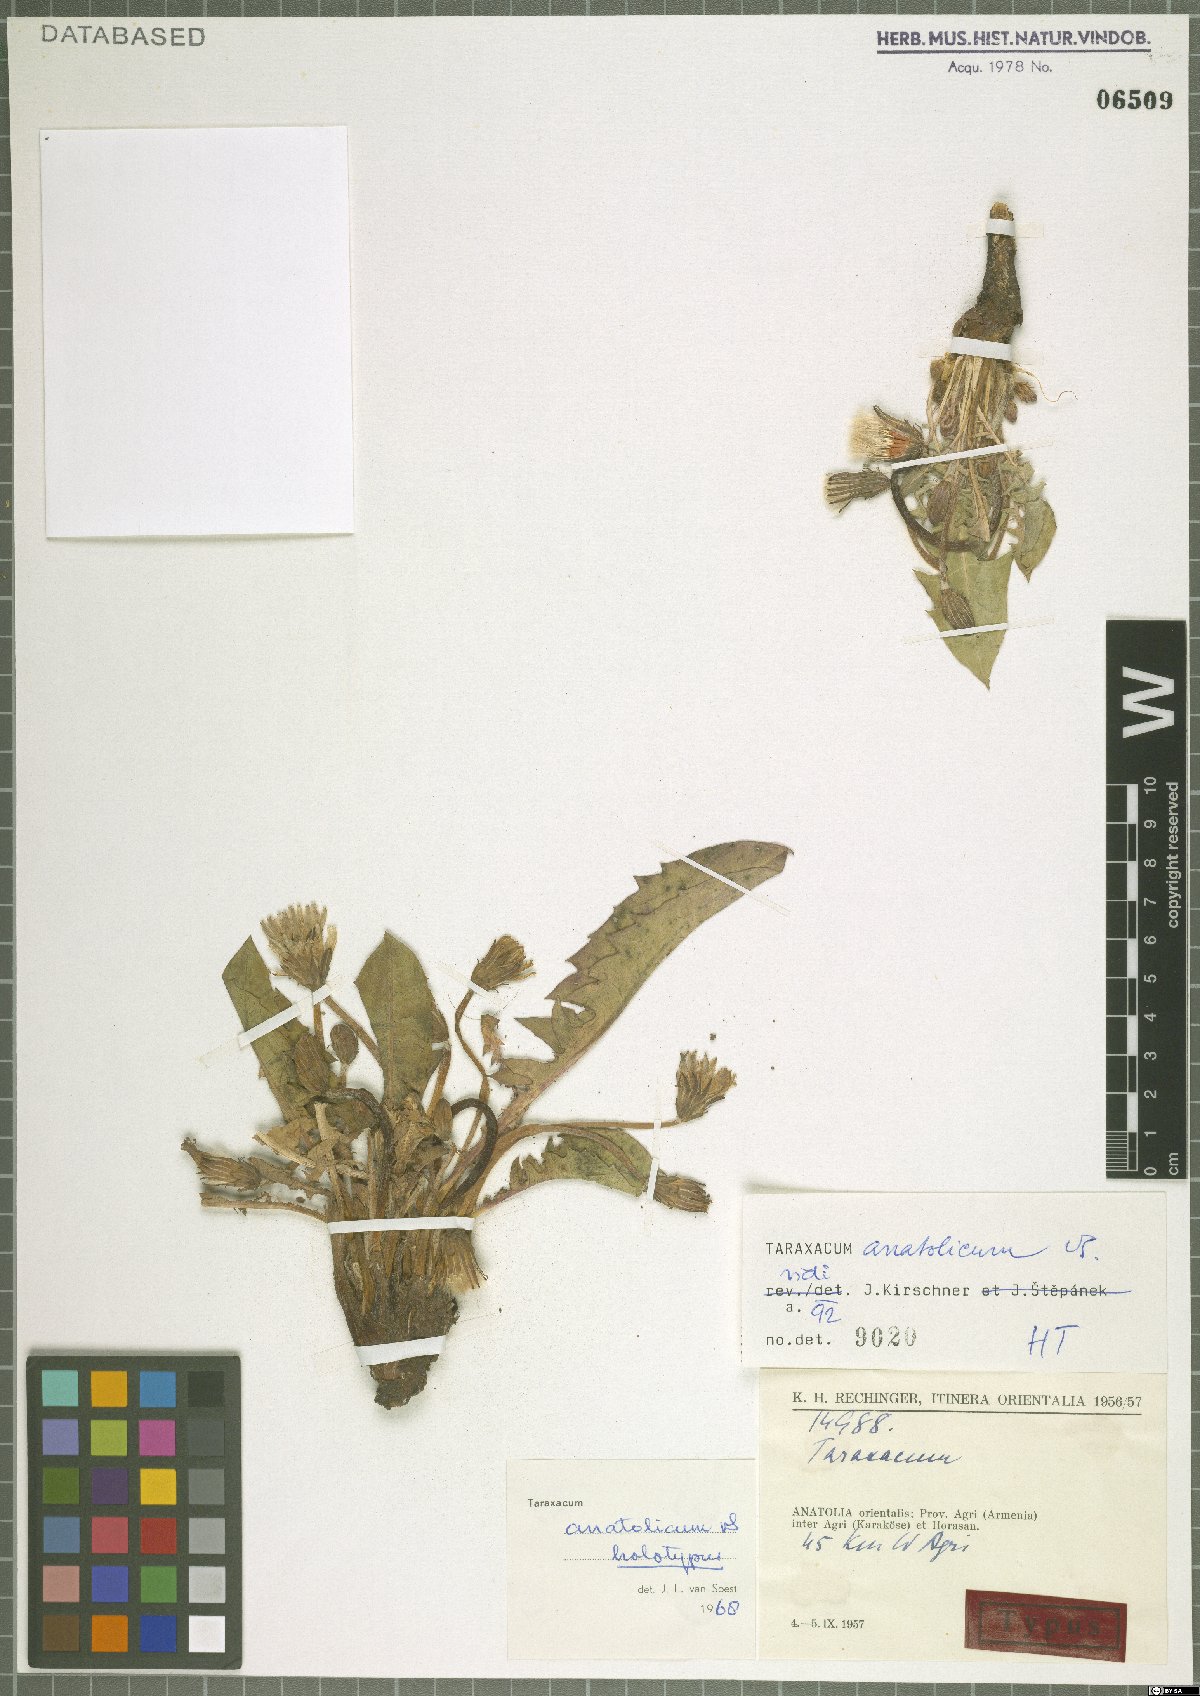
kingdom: Plantae
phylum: Tracheophyta
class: Magnoliopsida
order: Asterales
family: Asteraceae
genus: Taraxacum
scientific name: Taraxacum stenocephalum
